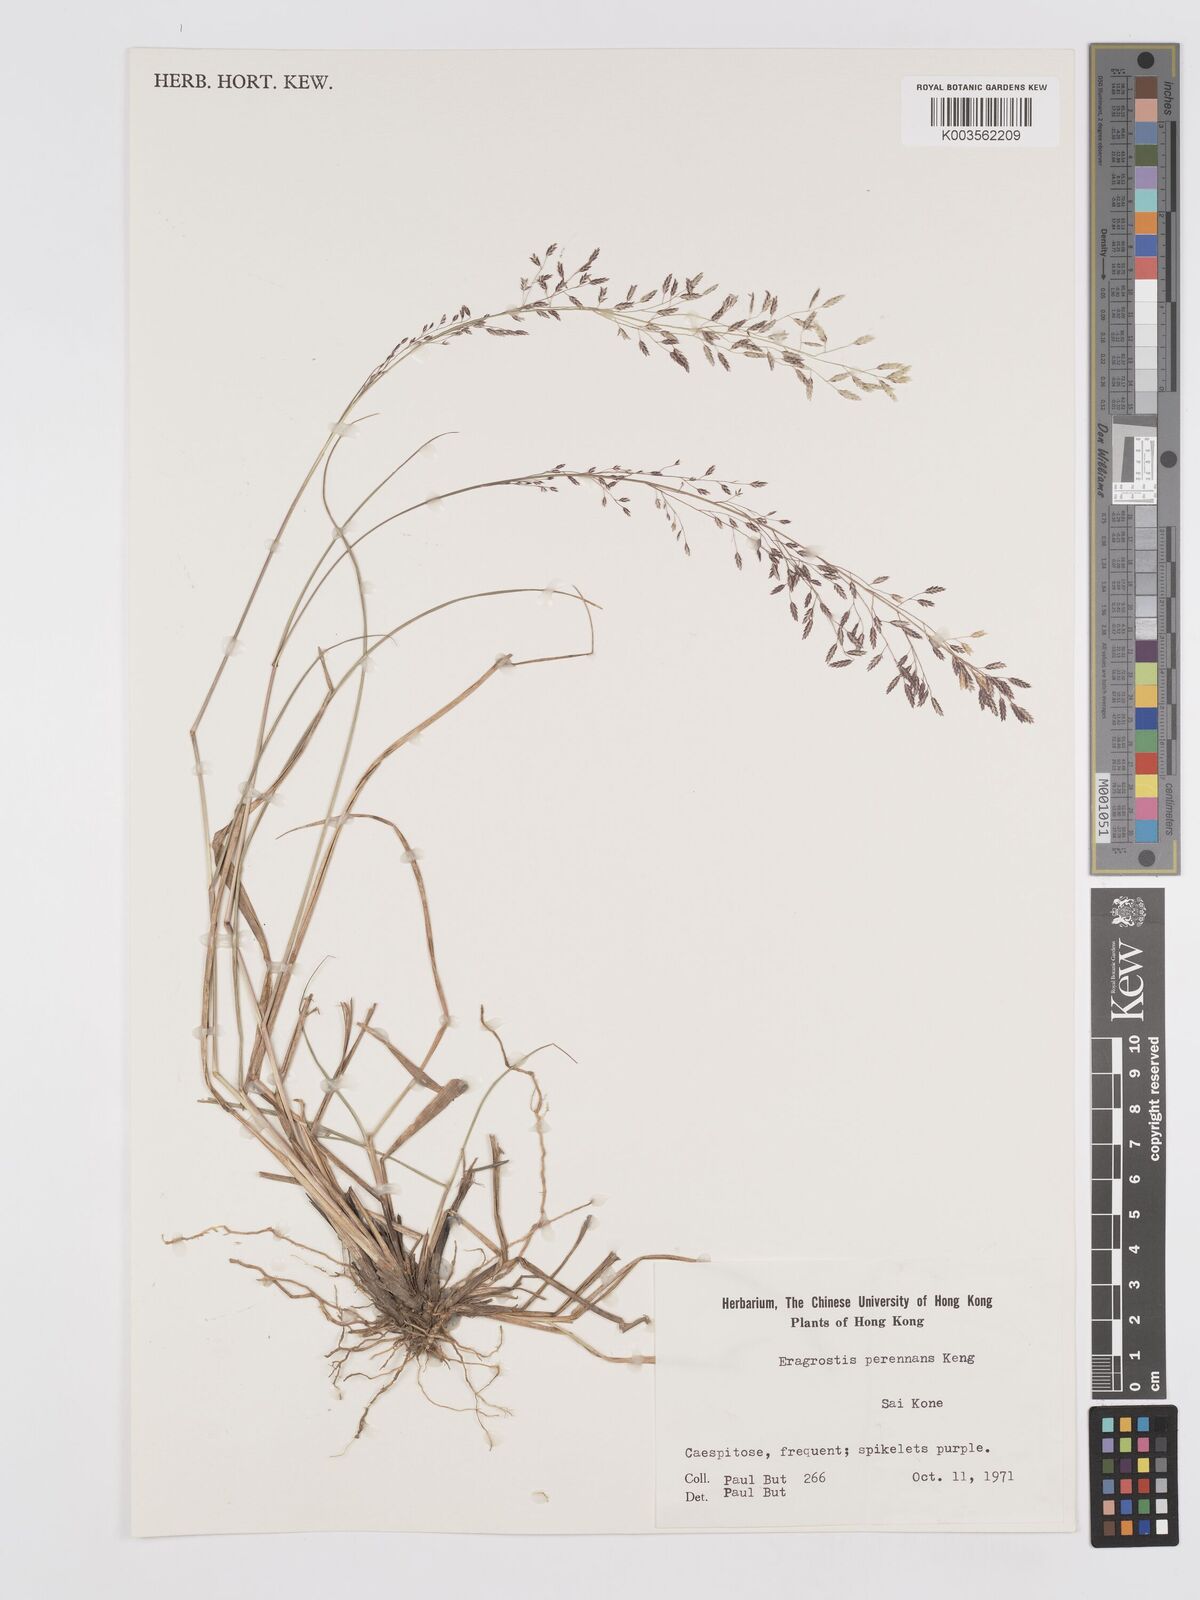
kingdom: Plantae
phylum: Tracheophyta
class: Liliopsida
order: Poales
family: Poaceae
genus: Eragrostis
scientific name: Eragrostis perennans
